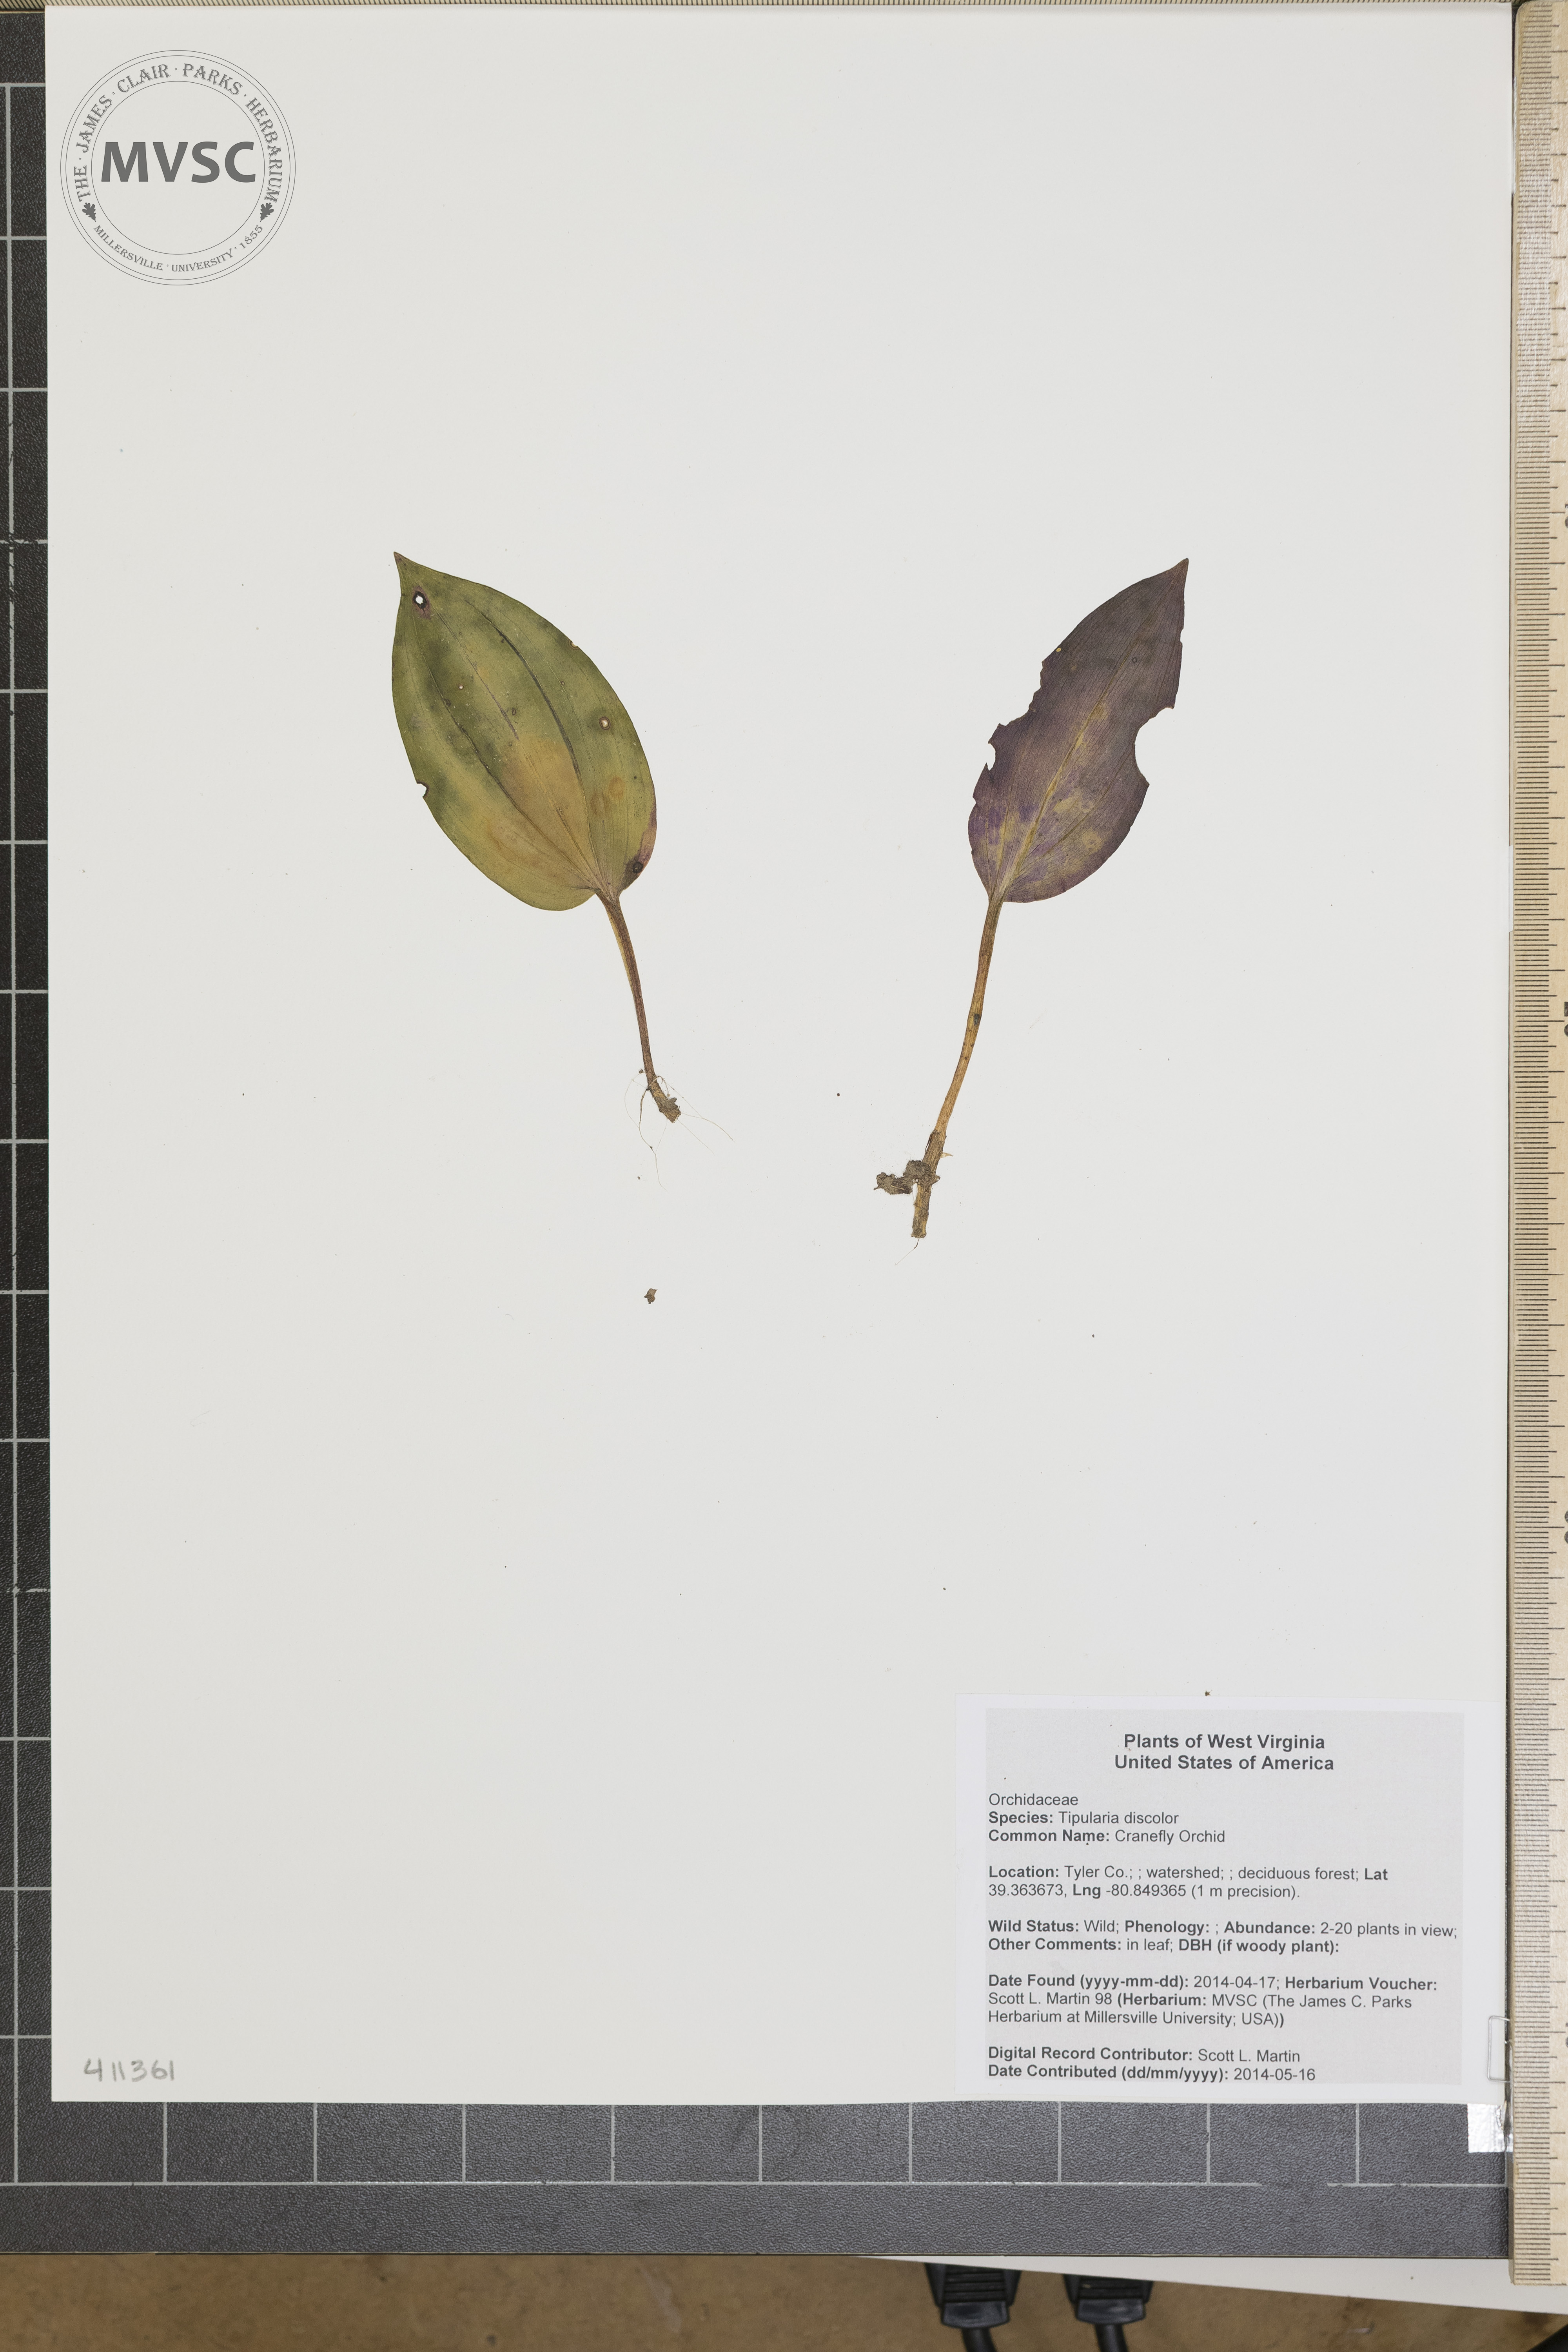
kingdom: Plantae
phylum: Tracheophyta
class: Liliopsida
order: Asparagales
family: Orchidaceae
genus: Tipularia
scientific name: Tipularia discolor
